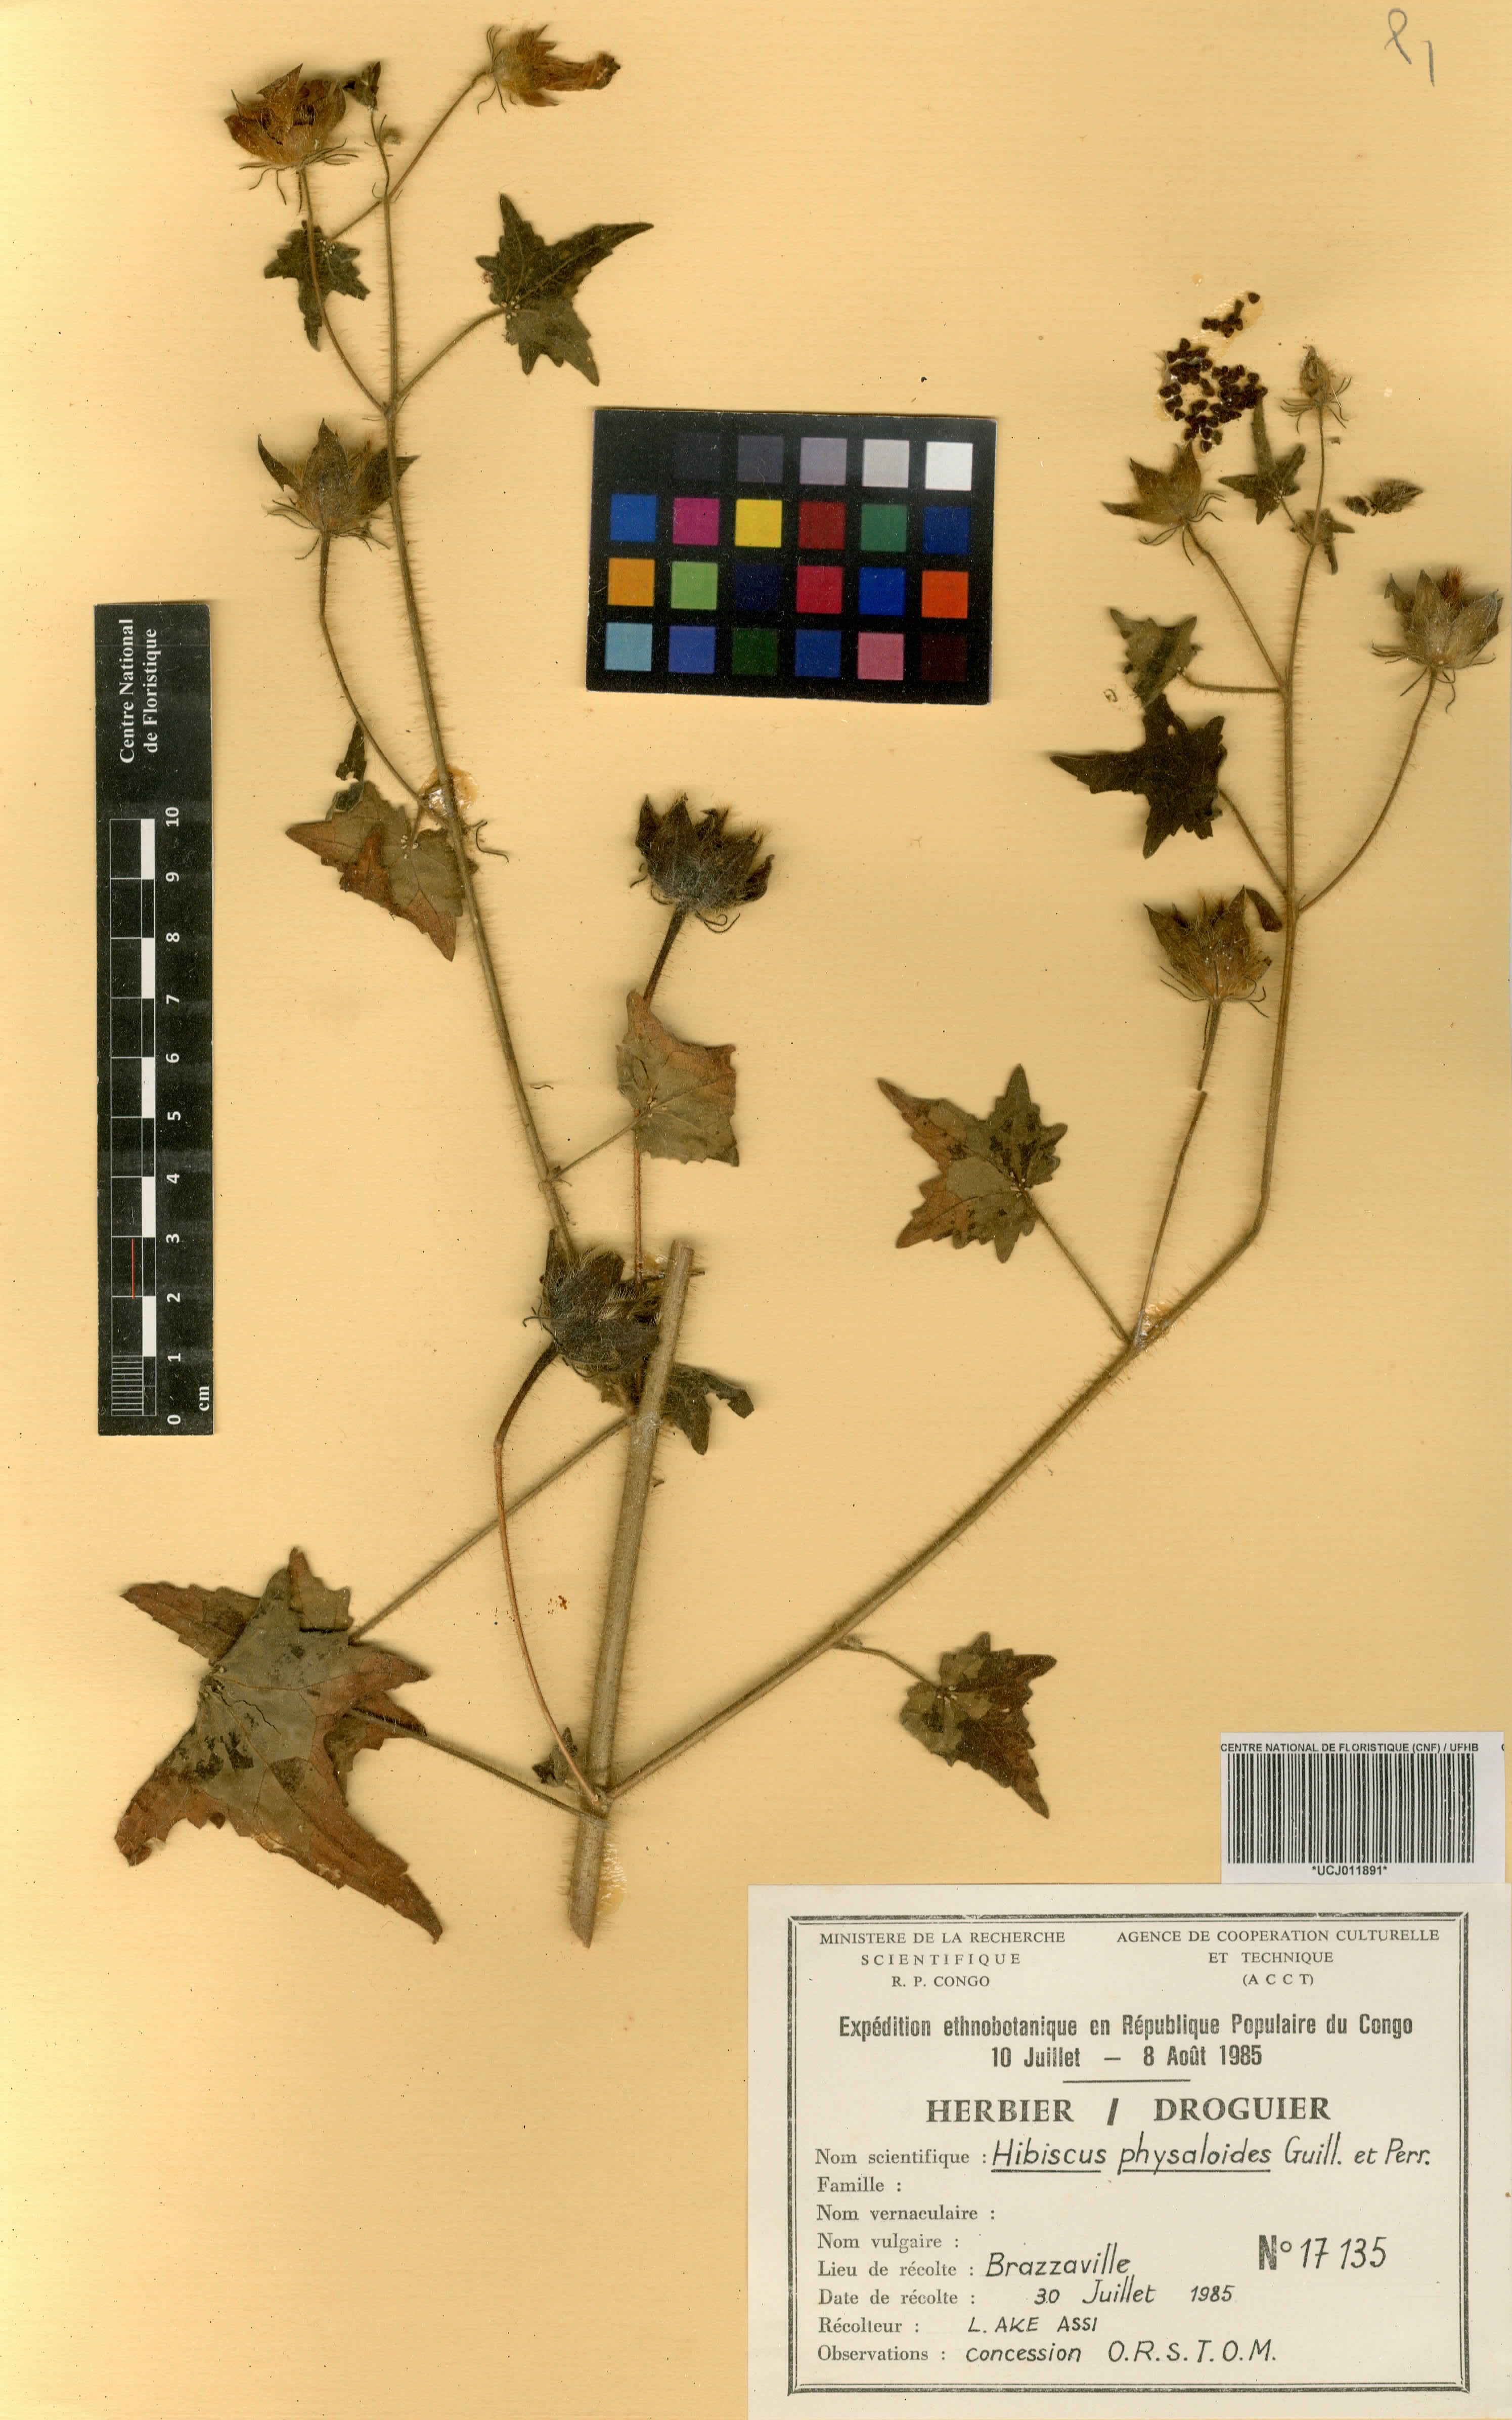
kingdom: Plantae
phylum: Tracheophyta
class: Magnoliopsida
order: Malvales
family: Malvaceae
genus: Hibiscus
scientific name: Hibiscus physaloides
